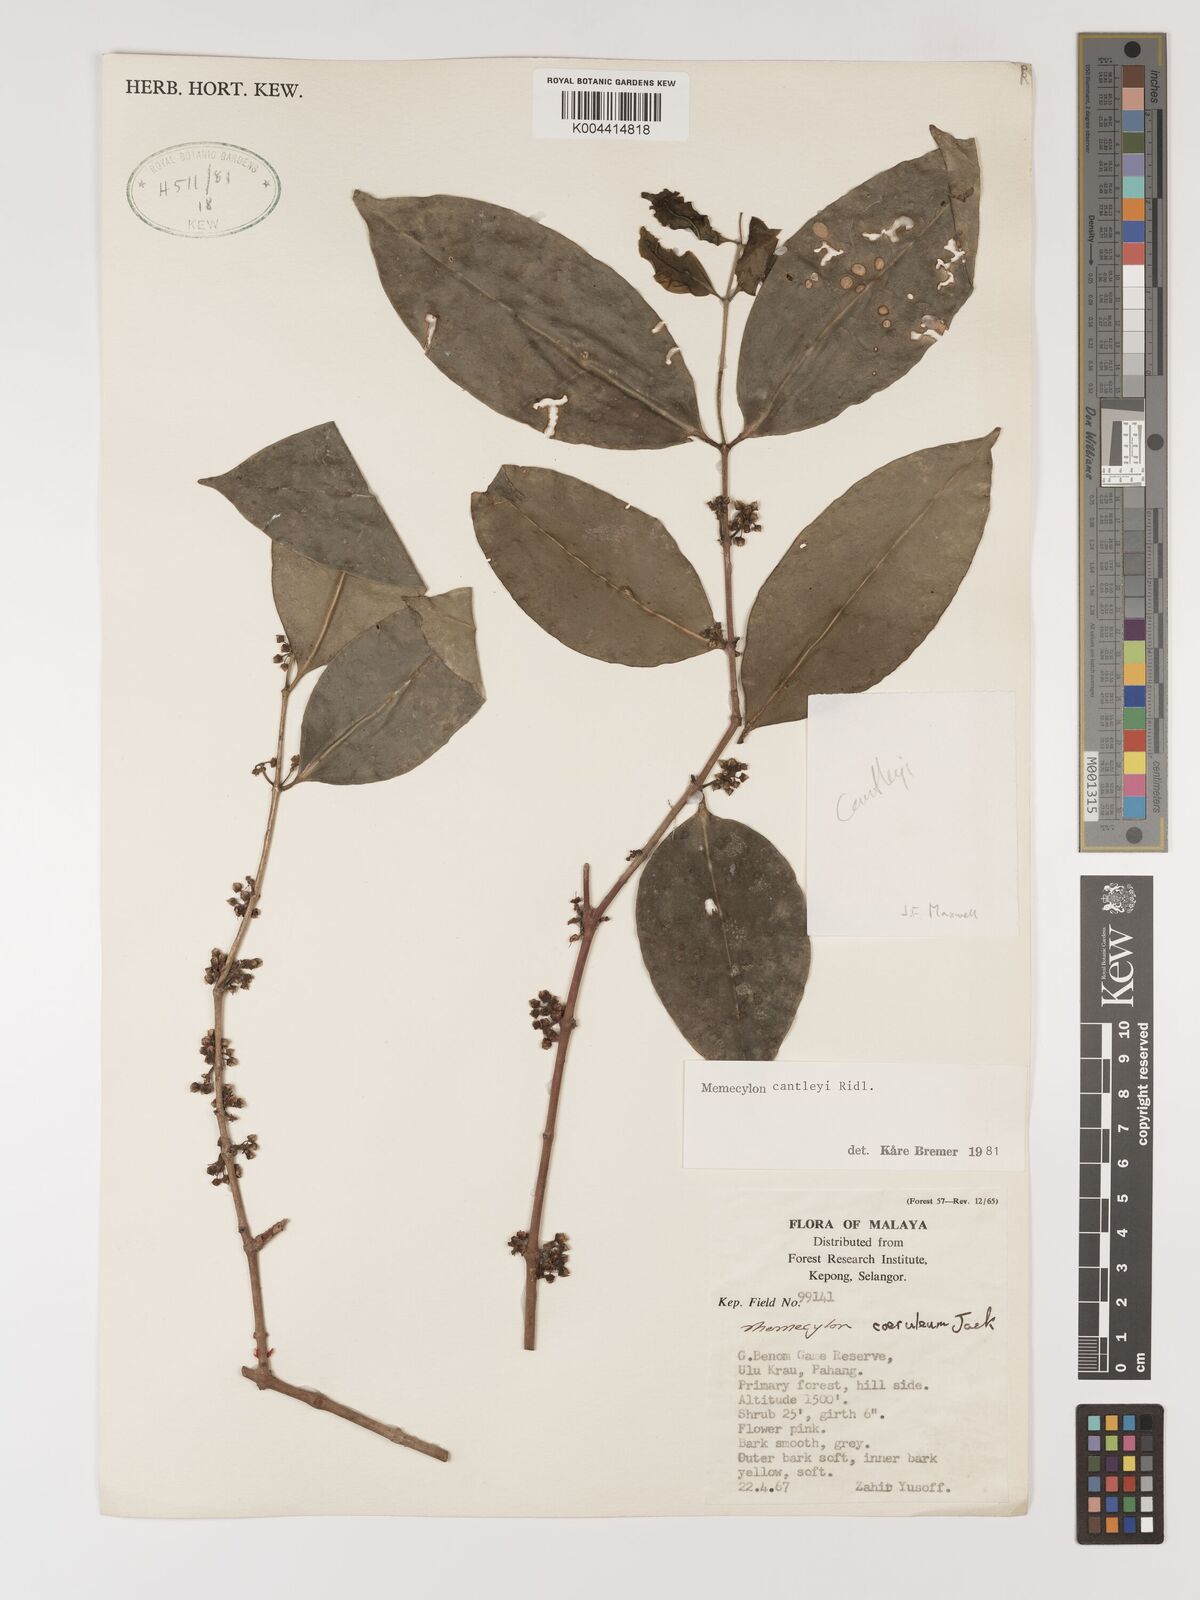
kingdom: Plantae
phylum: Tracheophyta
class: Magnoliopsida
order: Myrtales
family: Melastomataceae
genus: Memecylon
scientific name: Memecylon cantleyi
